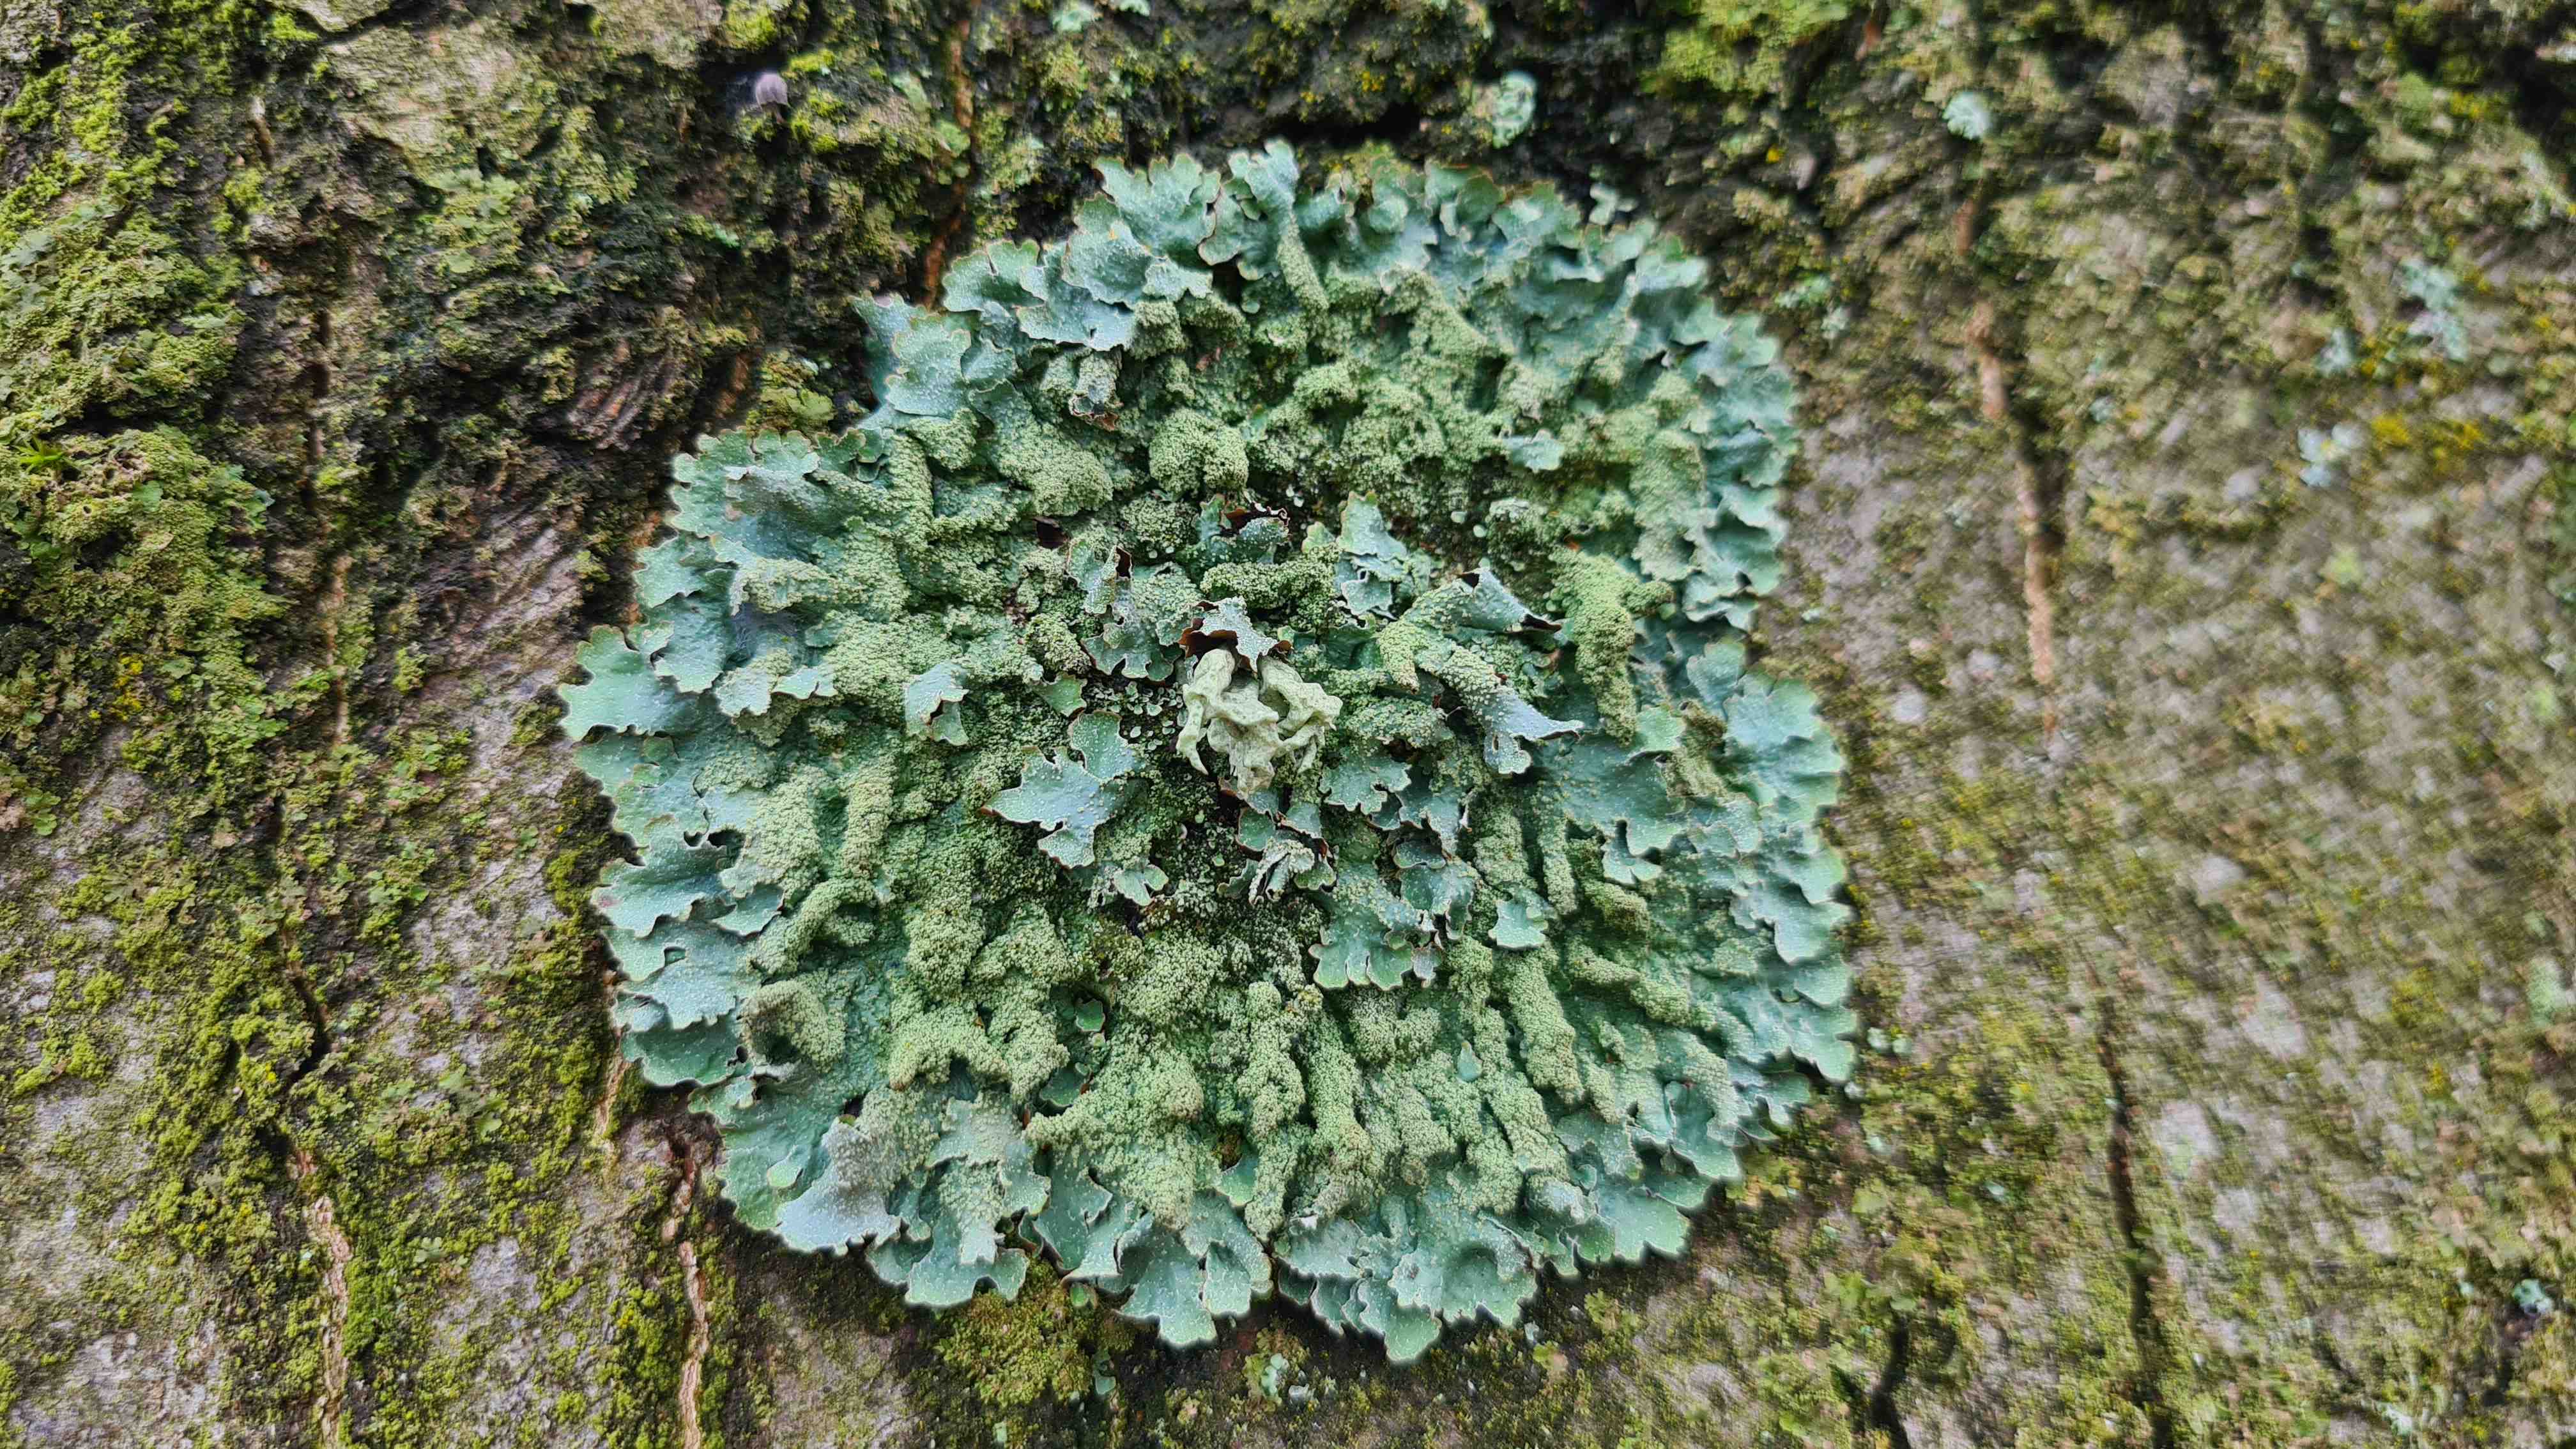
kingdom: Fungi
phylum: Ascomycota
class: Lecanoromycetes
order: Lecanorales
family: Parmeliaceae
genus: Parmelia
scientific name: Parmelia submontana
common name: langlobet skållav
